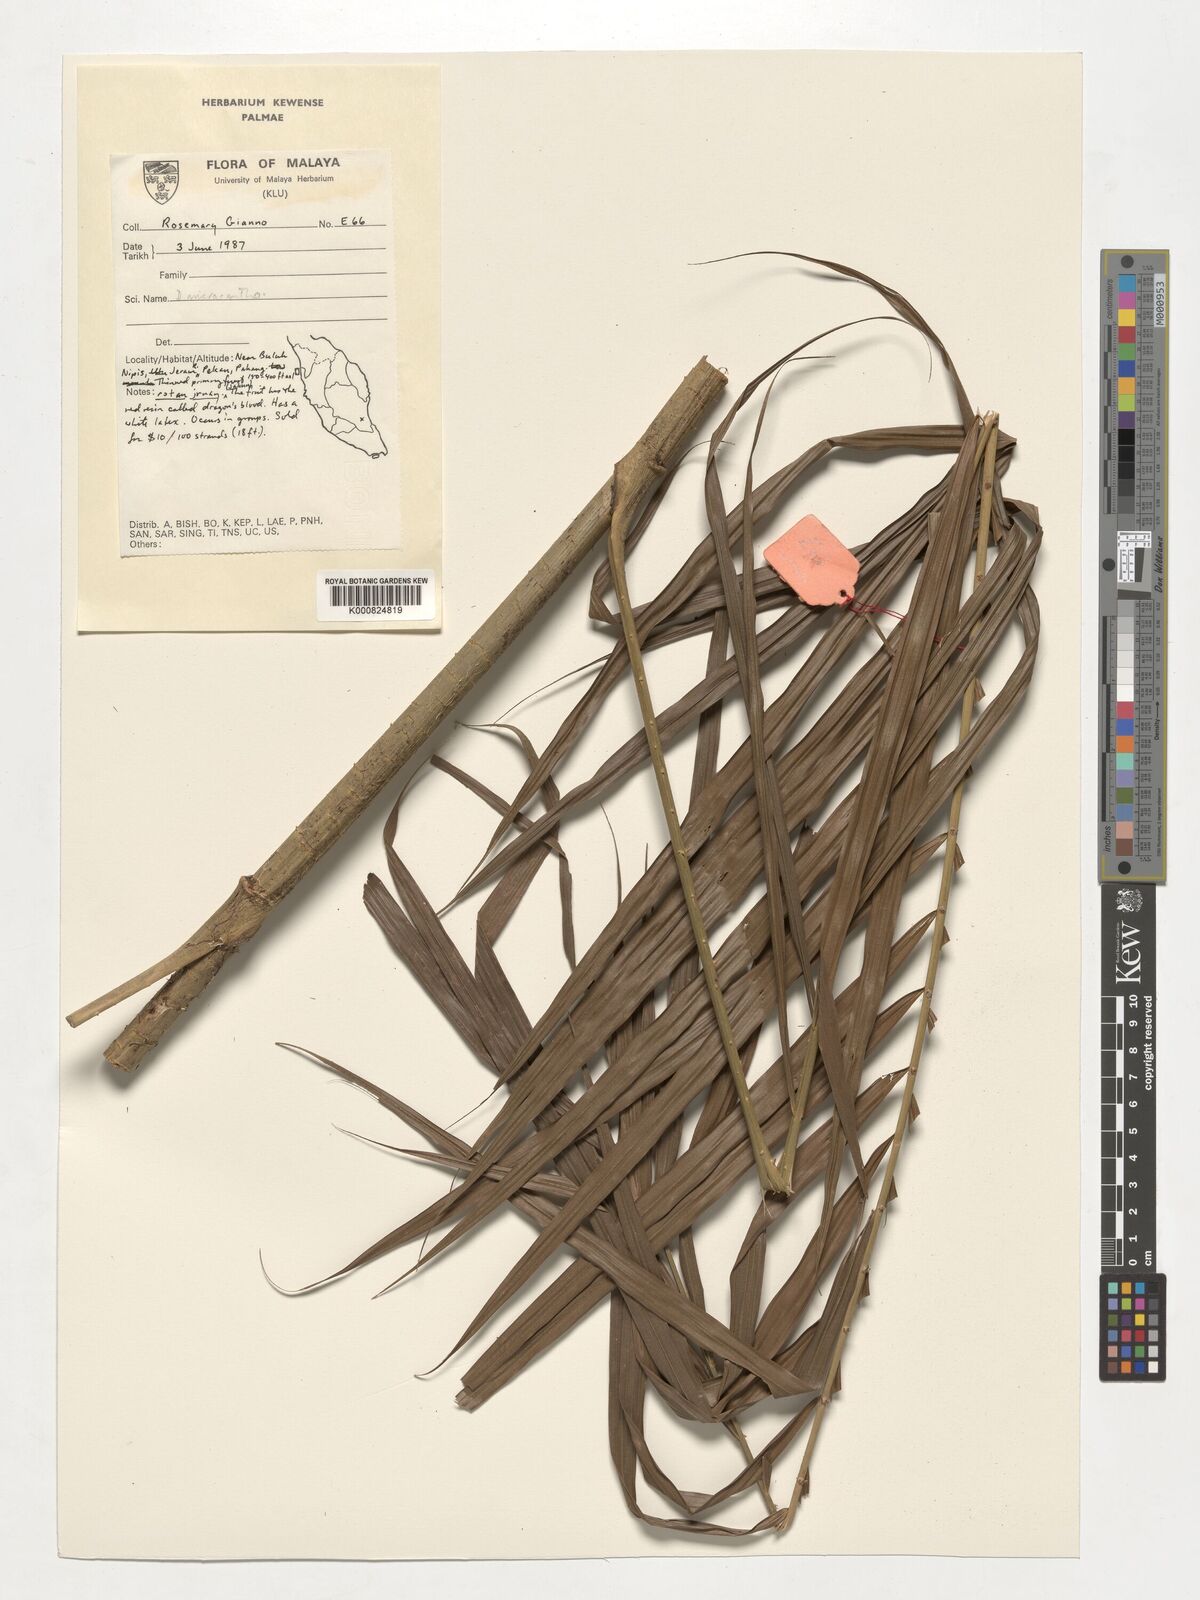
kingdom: Plantae
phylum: Tracheophyta
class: Liliopsida
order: Arecales
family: Arecaceae
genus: Calamus
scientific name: Calamus micracanthus
